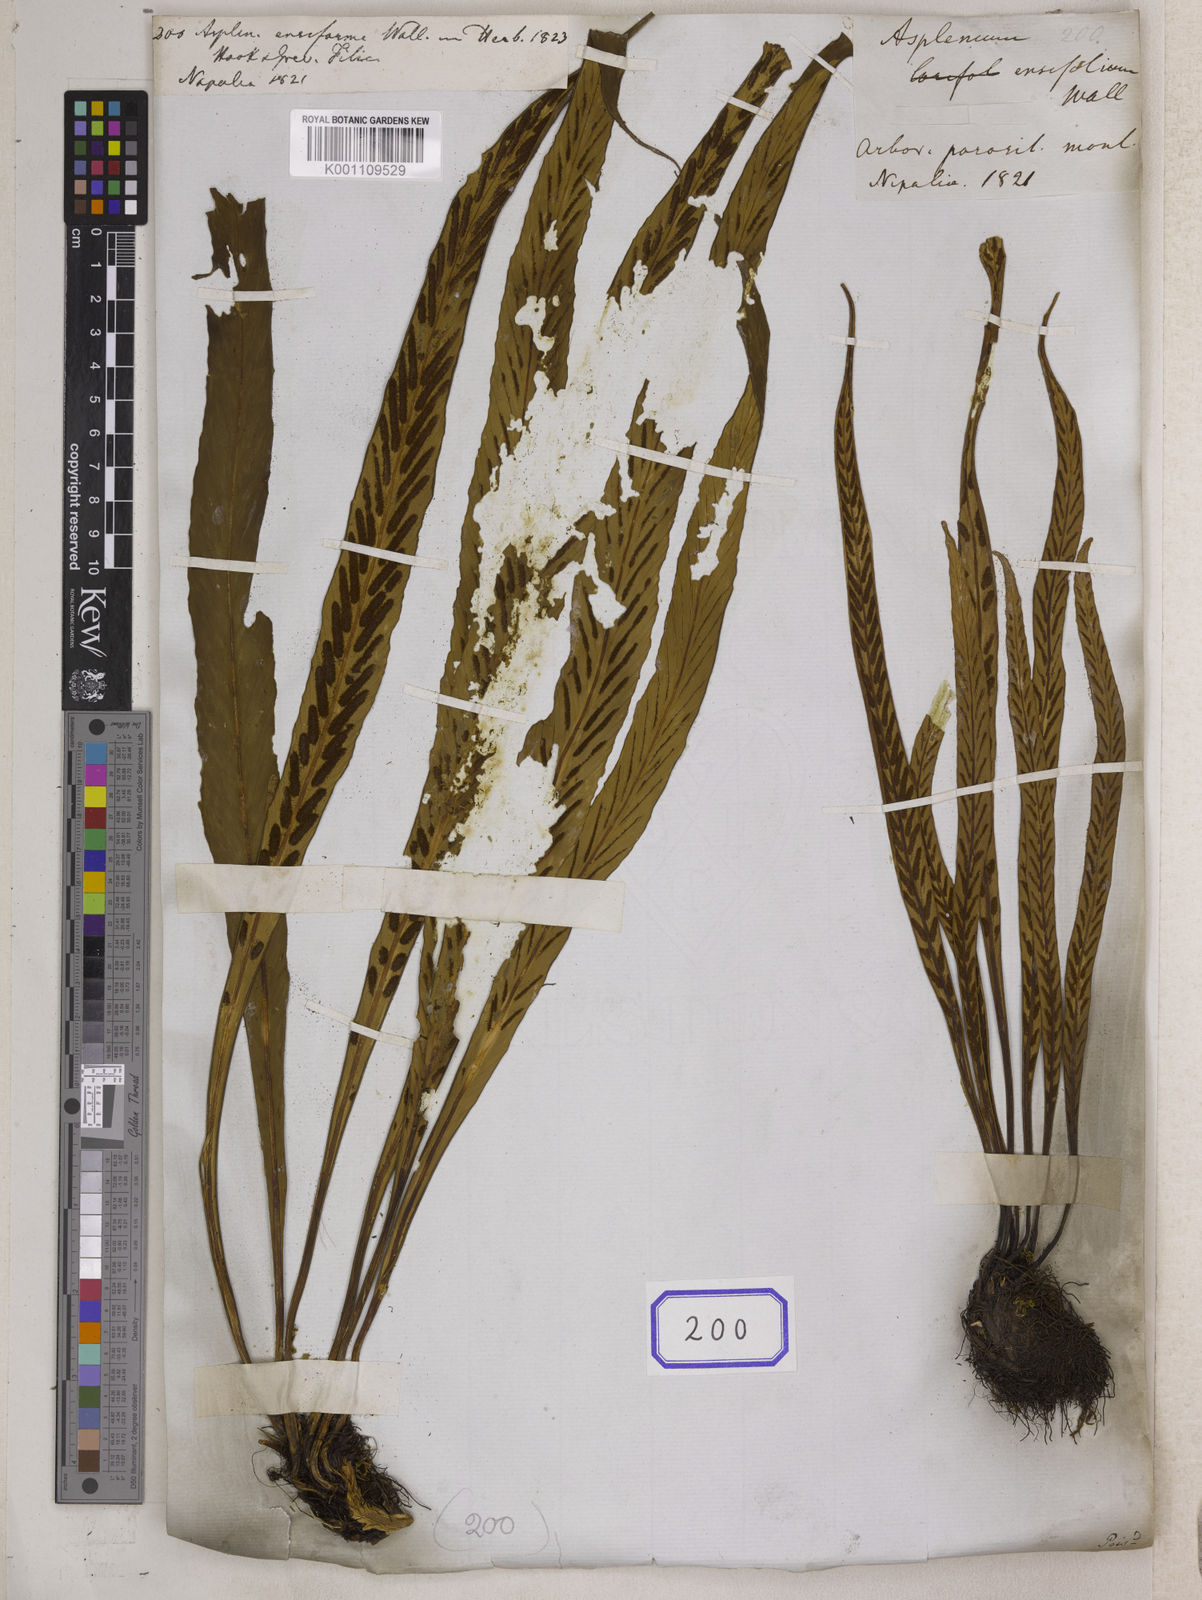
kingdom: Plantae
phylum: Tracheophyta
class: Polypodiopsida
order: Polypodiales
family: Aspleniaceae
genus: Asplenium
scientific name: Asplenium ensiforme
